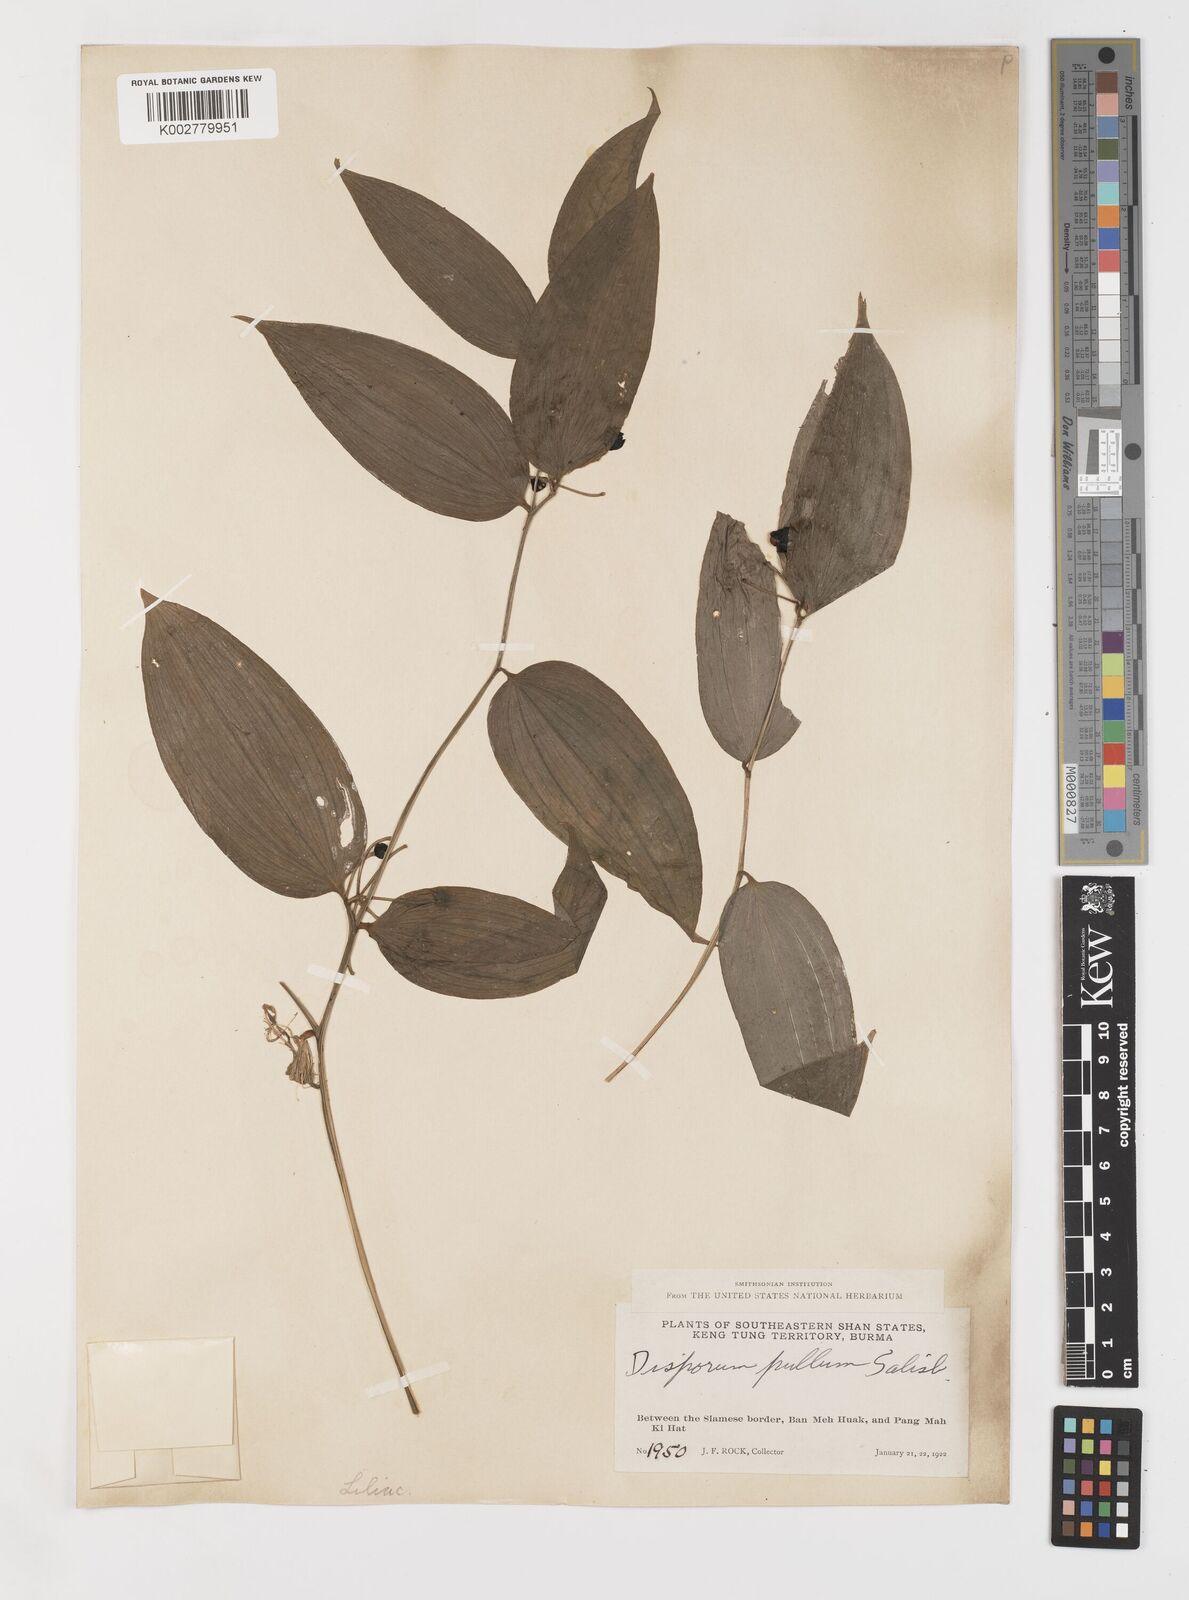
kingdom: Plantae
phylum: Tracheophyta
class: Liliopsida
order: Liliales
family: Colchicaceae
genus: Disporum
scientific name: Disporum cantoniense
